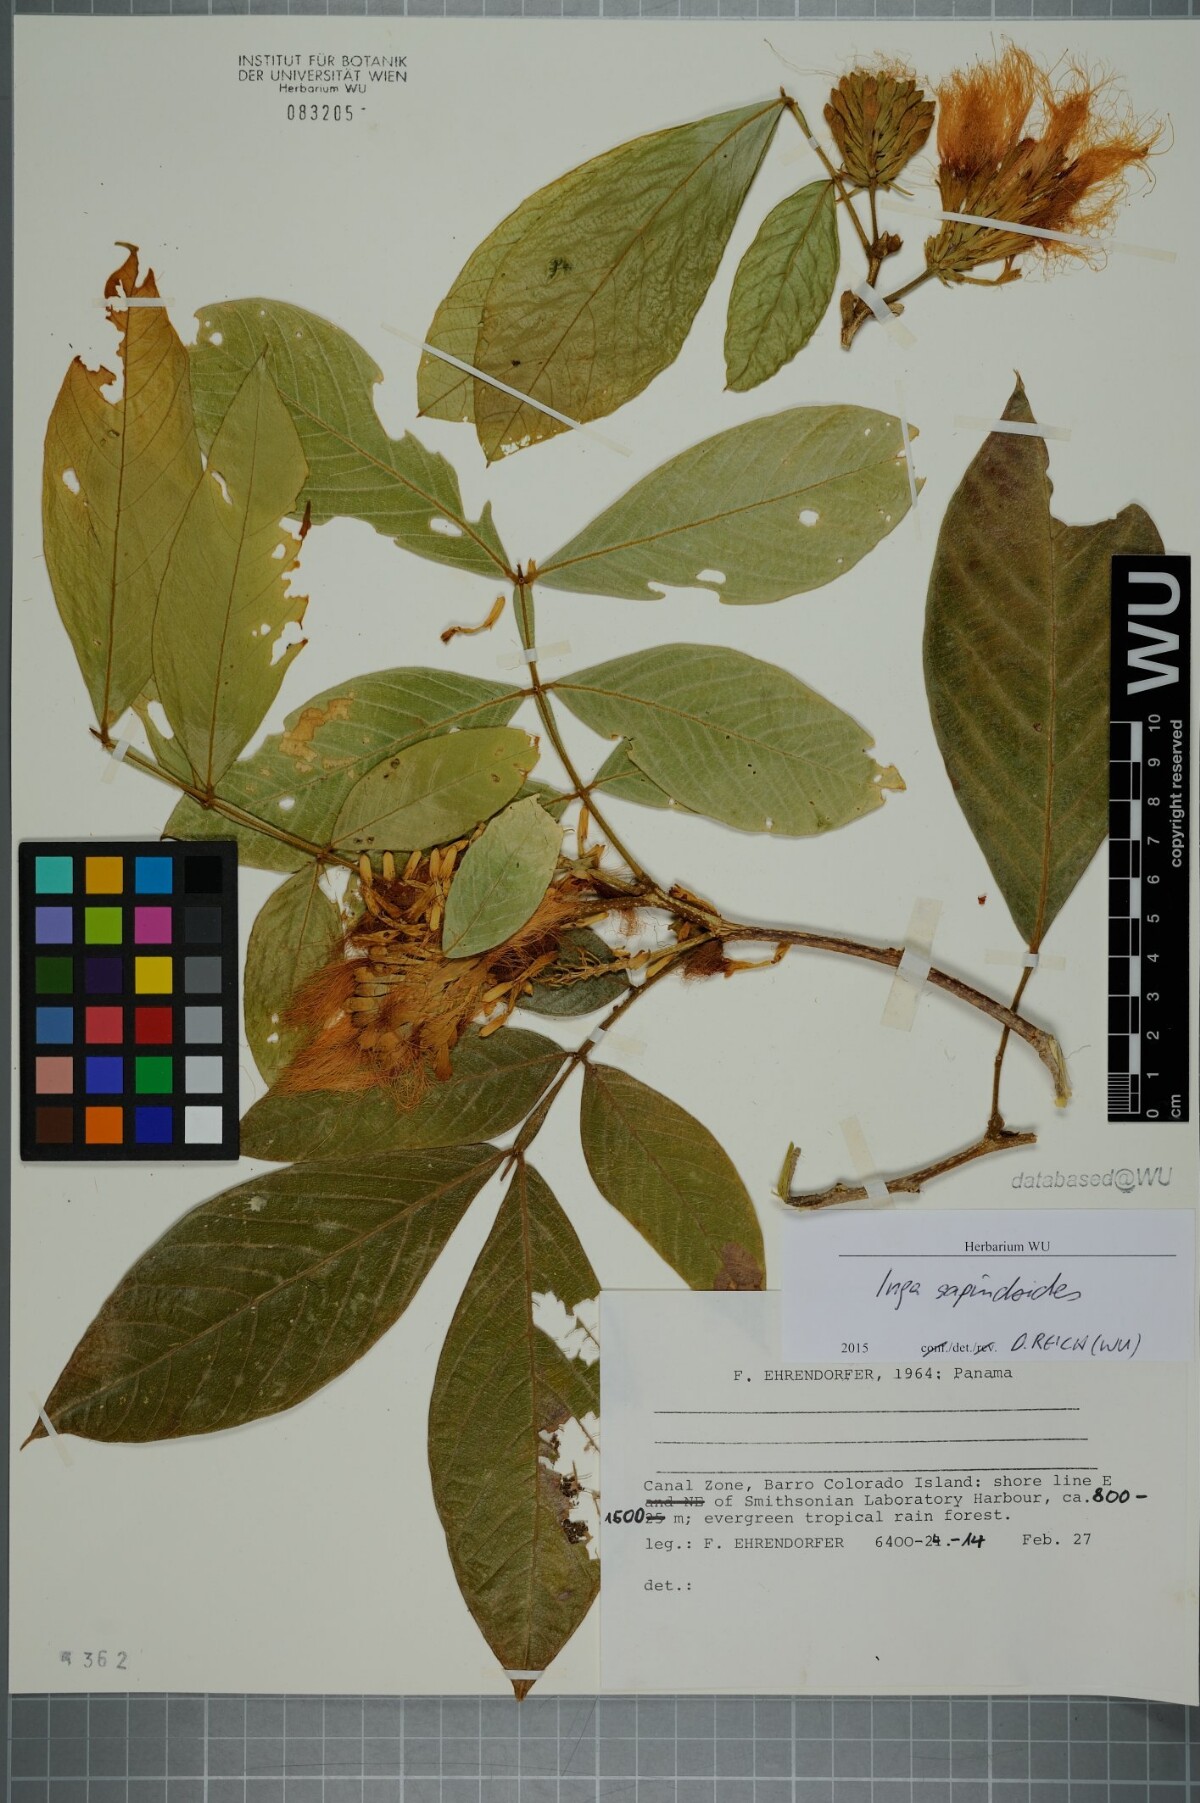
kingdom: Plantae
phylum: Tracheophyta
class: Magnoliopsida
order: Fabales
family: Fabaceae
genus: Inga
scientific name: Inga sapindoides
